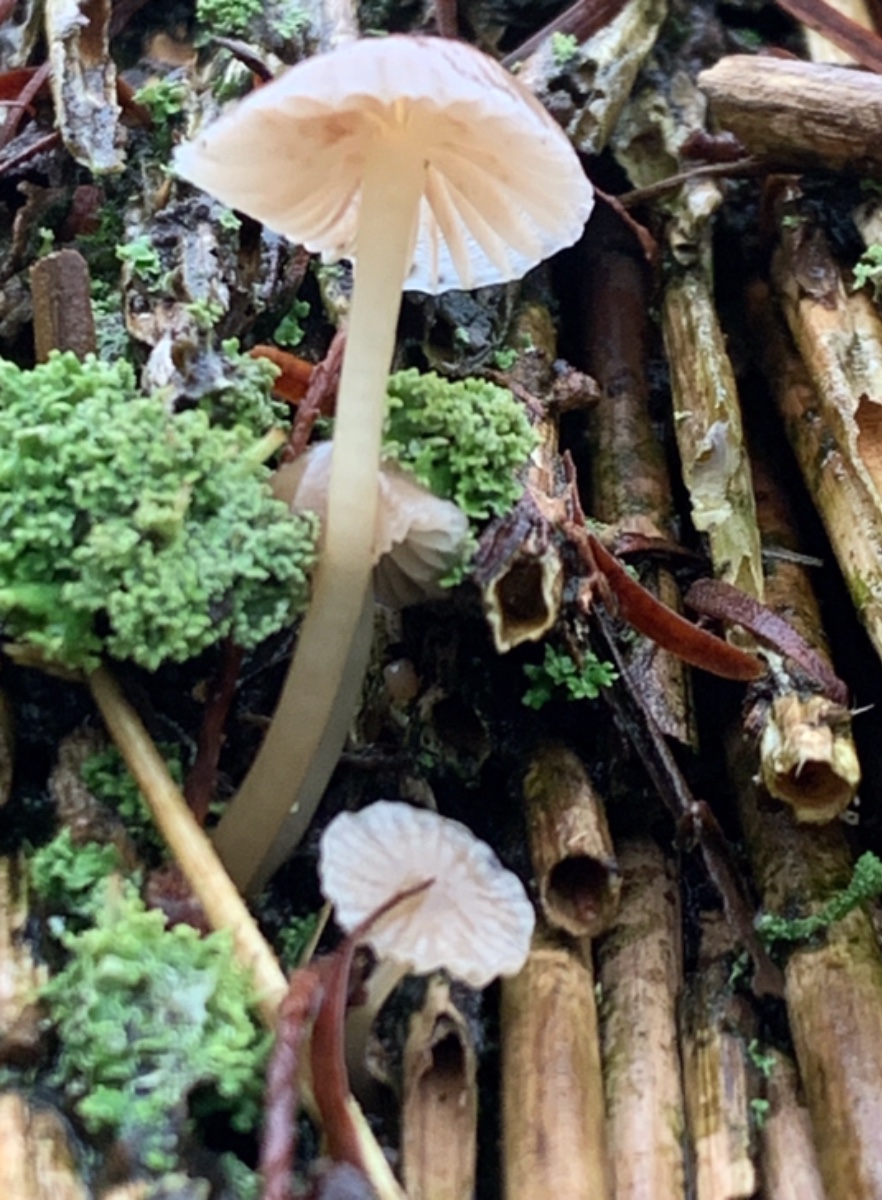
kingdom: Fungi
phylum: Basidiomycota
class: Agaricomycetes
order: Agaricales
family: Mycenaceae
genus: Mycena
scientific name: Mycena epipterygia
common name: gulstokket huesvamp
